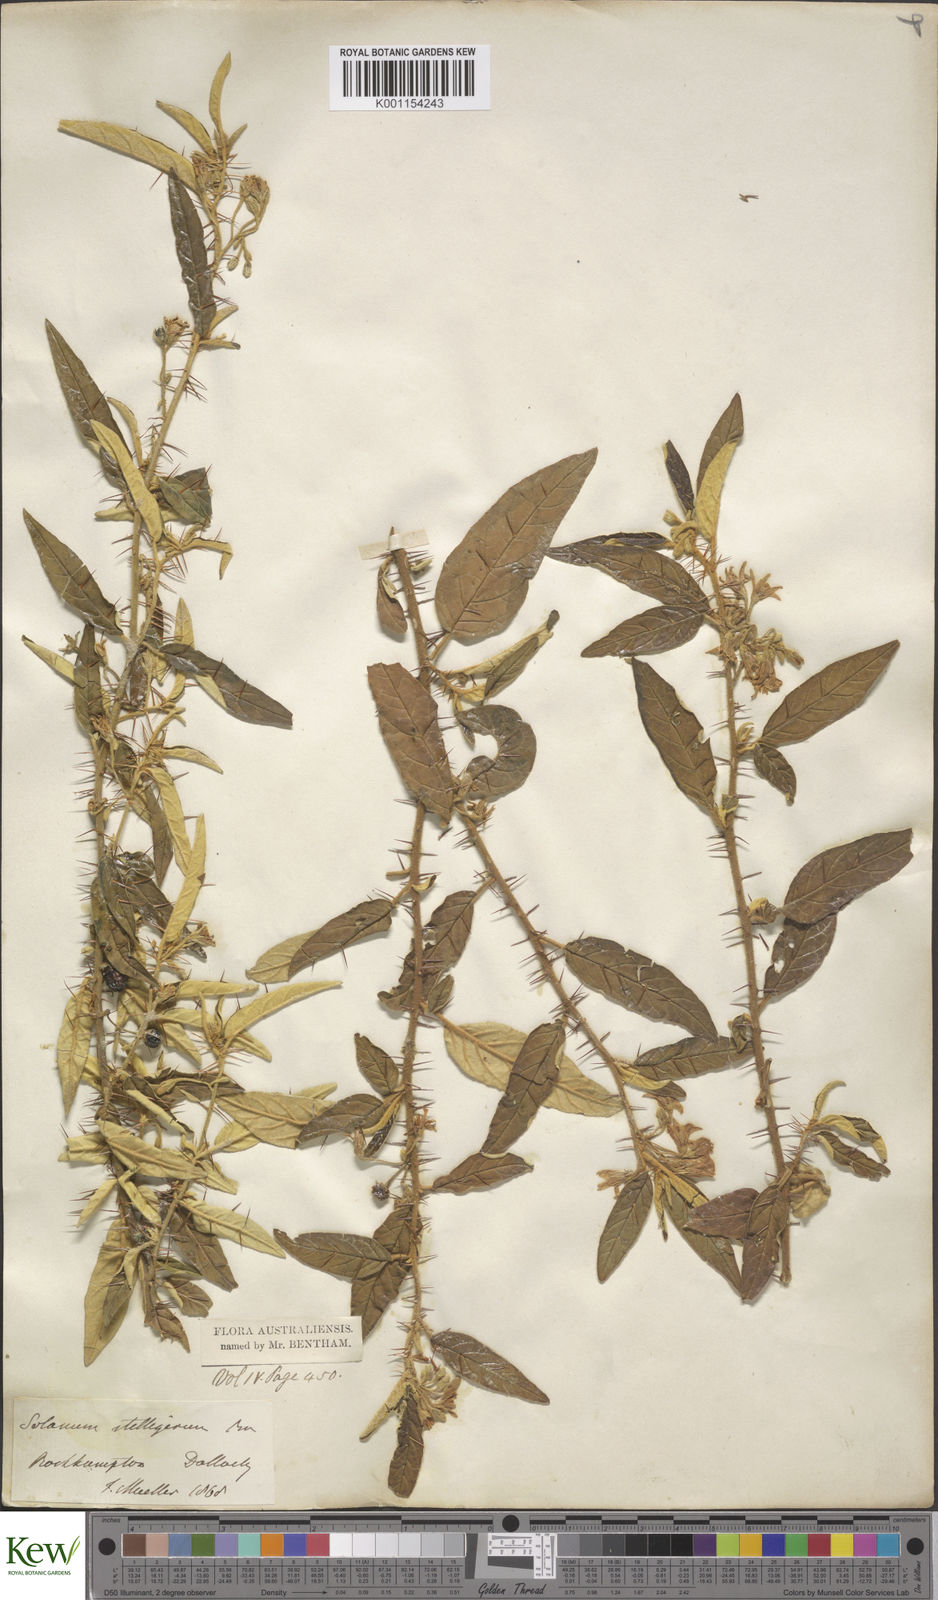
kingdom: Plantae
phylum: Tracheophyta
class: Magnoliopsida
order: Solanales
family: Solanaceae
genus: Solanum
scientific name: Solanum stelligerum
